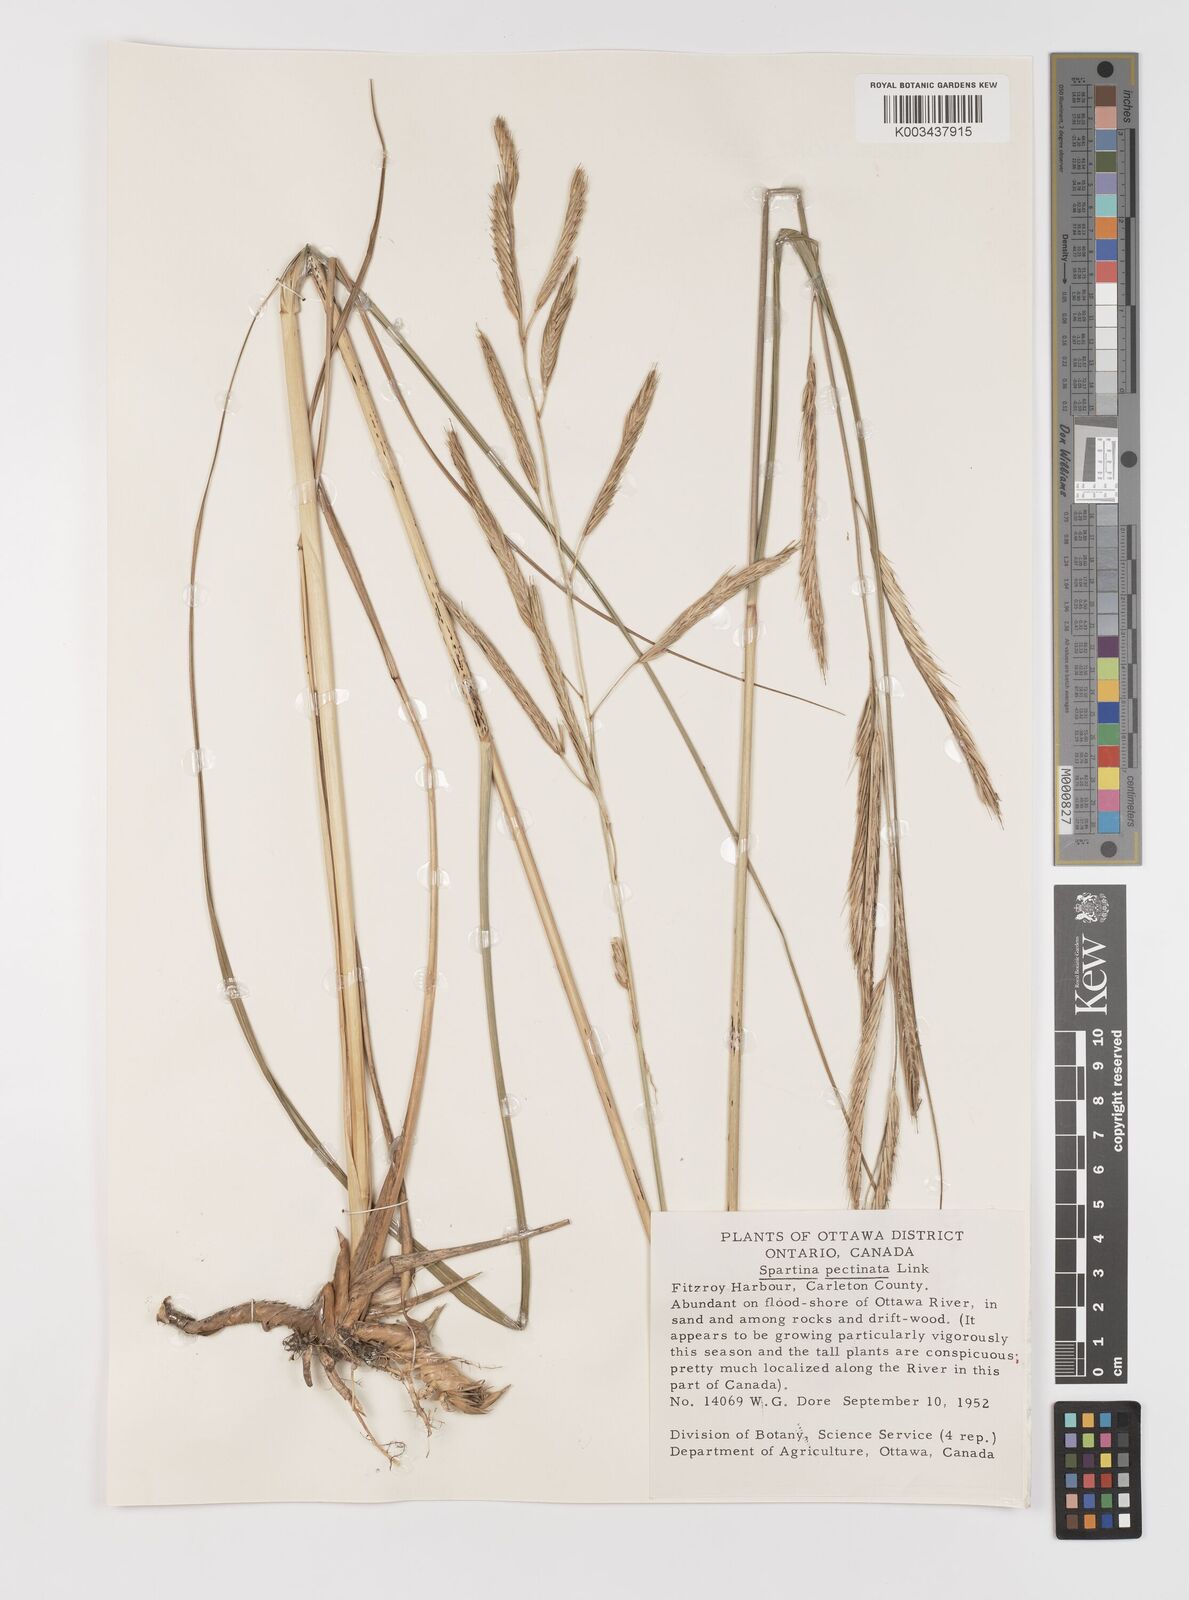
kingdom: Plantae
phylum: Tracheophyta
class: Liliopsida
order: Poales
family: Poaceae
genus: Sporobolus
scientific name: Sporobolus michauxianus
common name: Freshwater cordgrass
